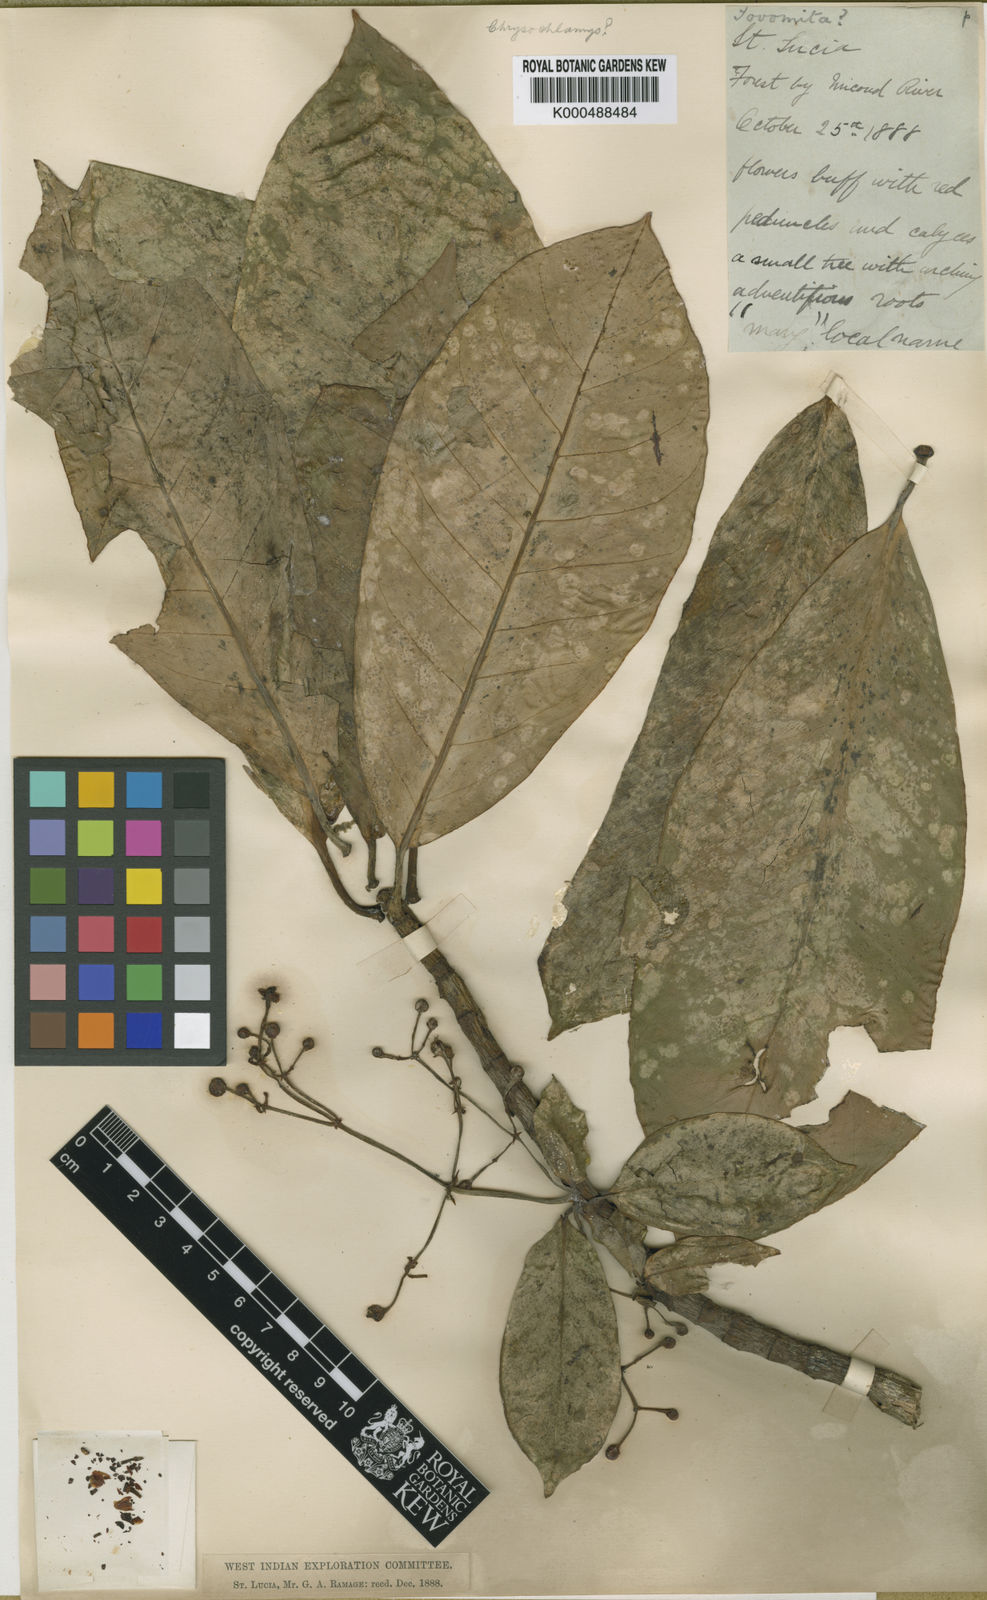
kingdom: Plantae
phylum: Tracheophyta
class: Magnoliopsida
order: Malpighiales
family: Clusiaceae
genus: Chrysochlamys
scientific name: Chrysochlamys caribaea
